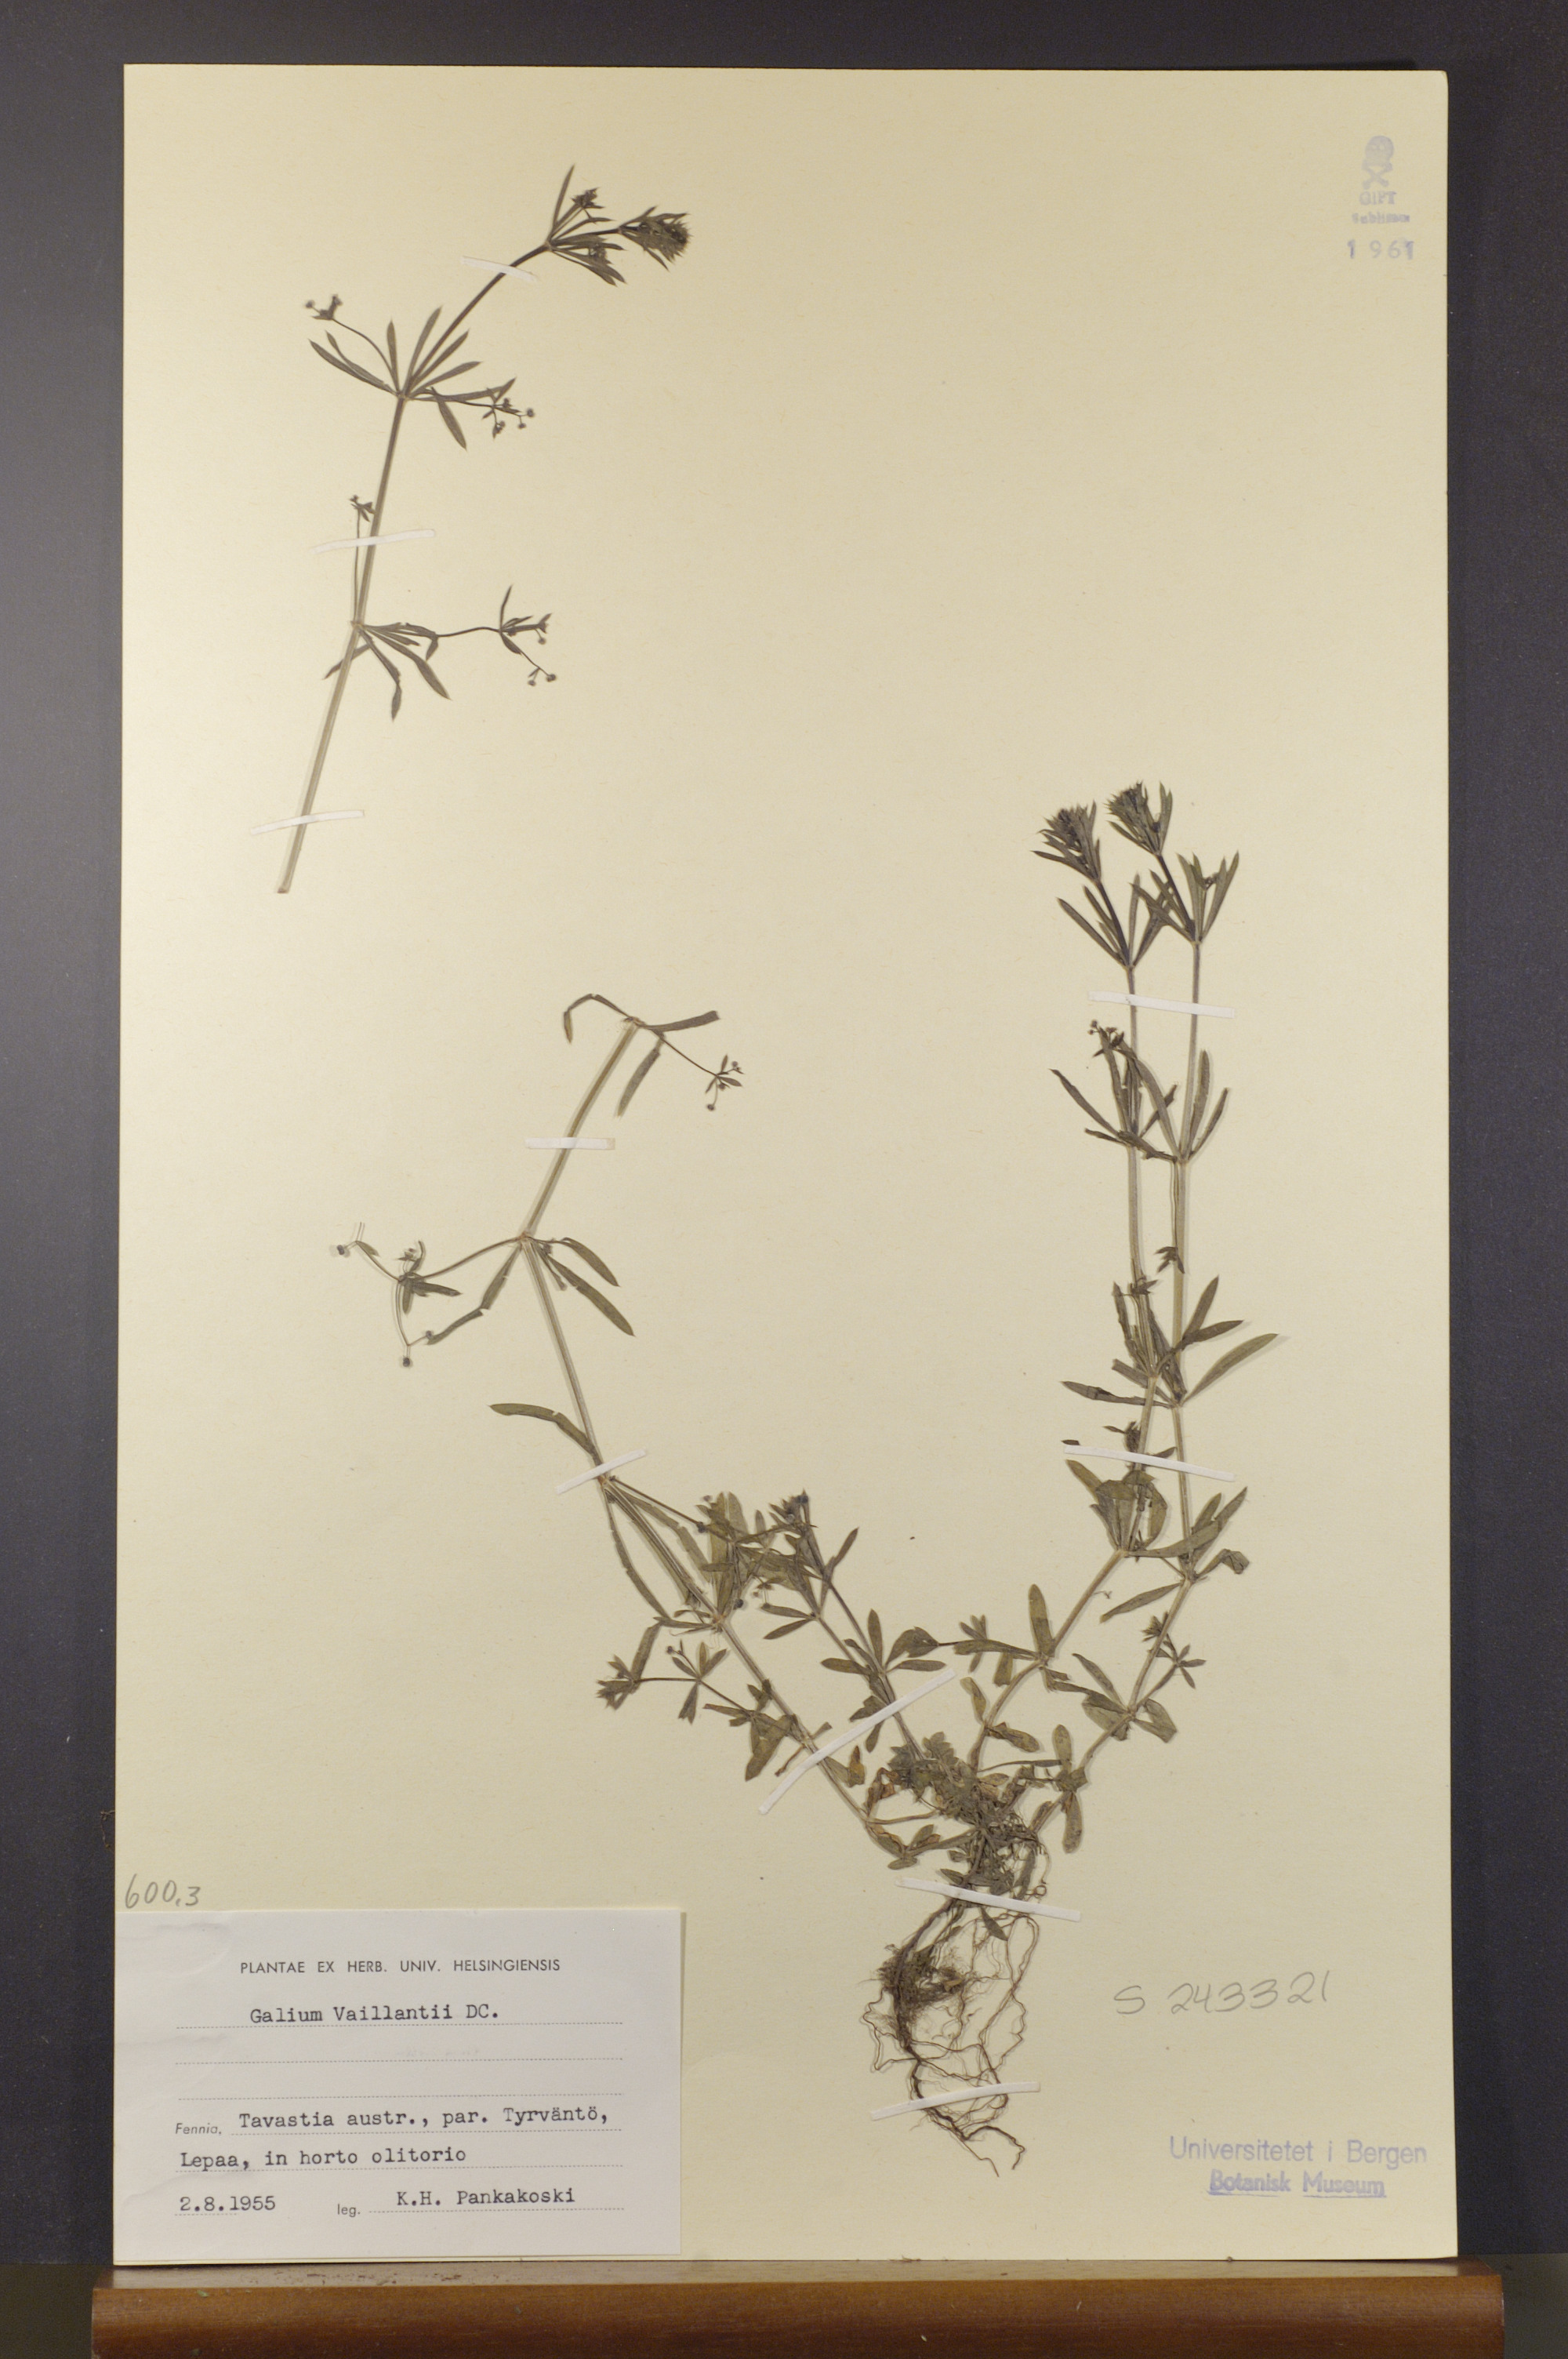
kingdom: Plantae
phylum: Tracheophyta
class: Magnoliopsida
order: Gentianales
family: Rubiaceae
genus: Galium
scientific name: Galium spurium
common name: False cleavers
